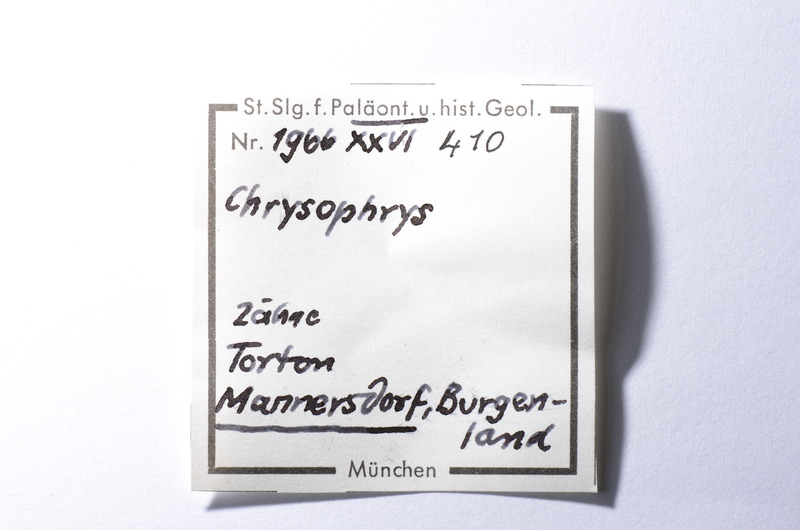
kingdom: Animalia
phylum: Chordata
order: Perciformes
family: Sparidae
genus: Chrysophrys
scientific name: Chrysophrys
